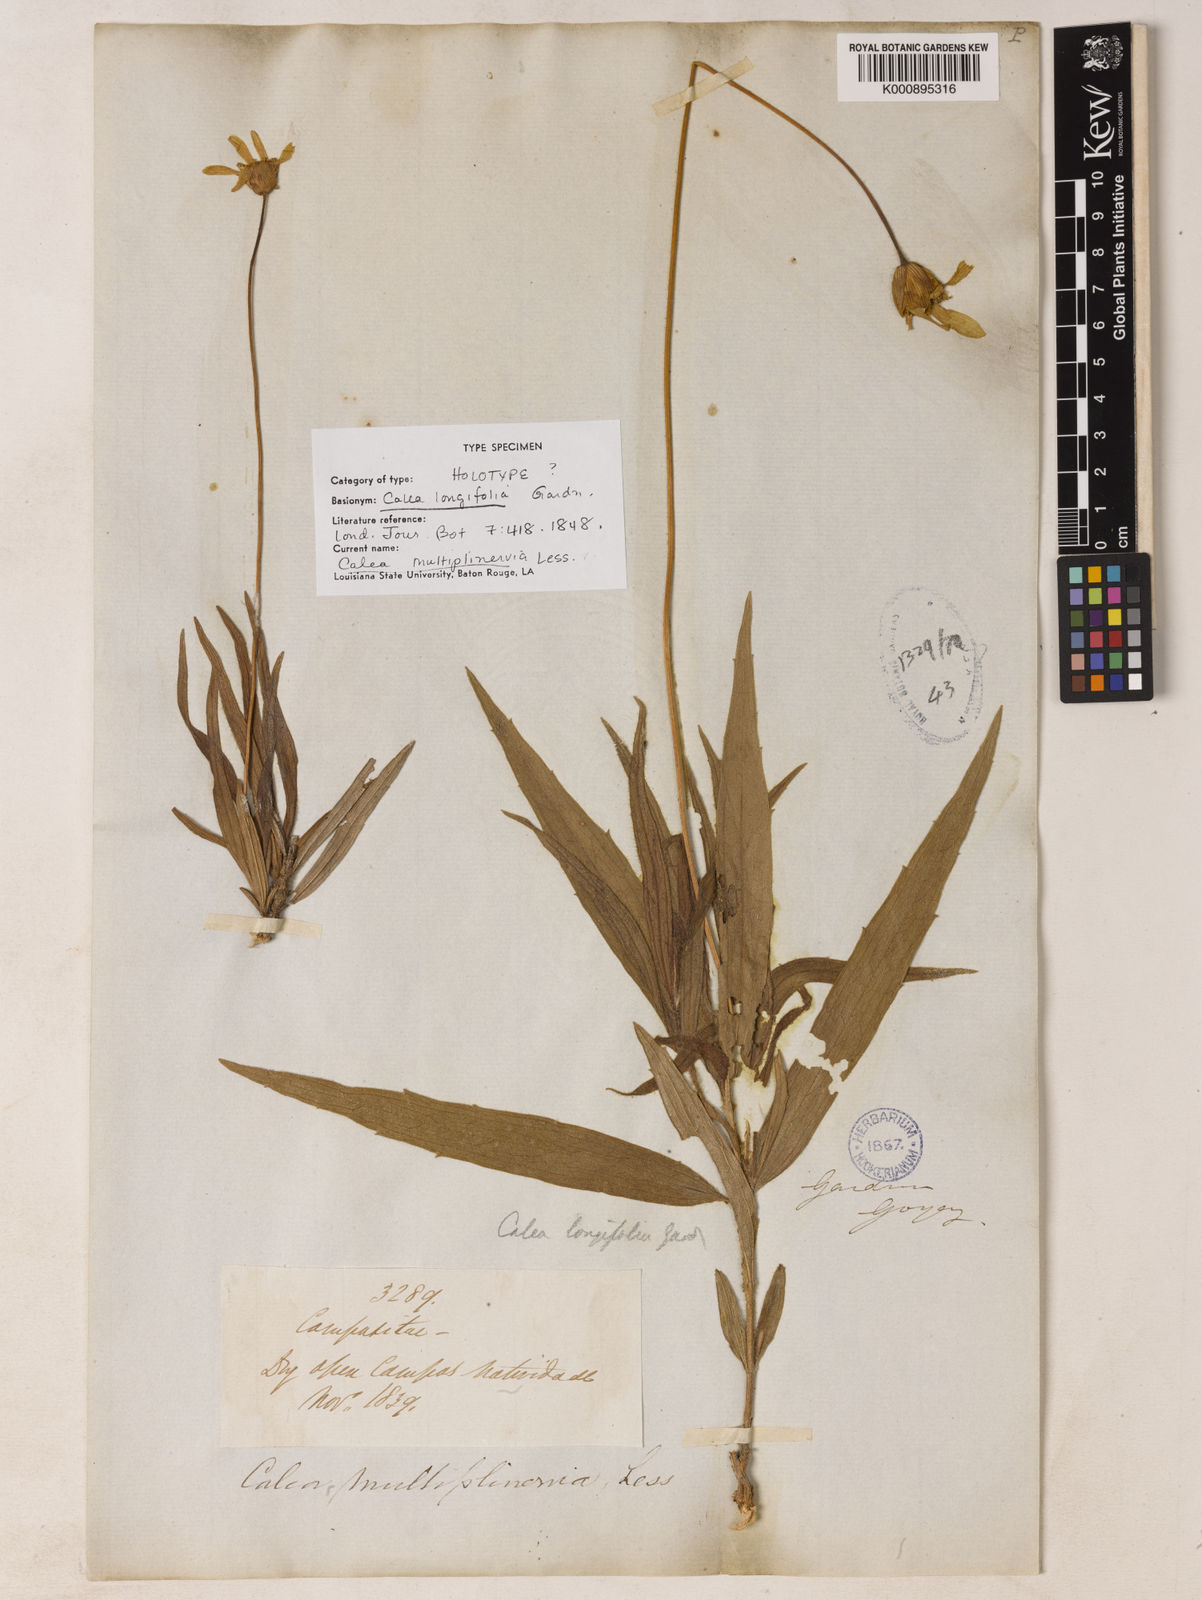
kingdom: Plantae
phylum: Tracheophyta
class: Magnoliopsida
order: Asterales
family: Asteraceae
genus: Calea
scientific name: Calea multiplinervia
